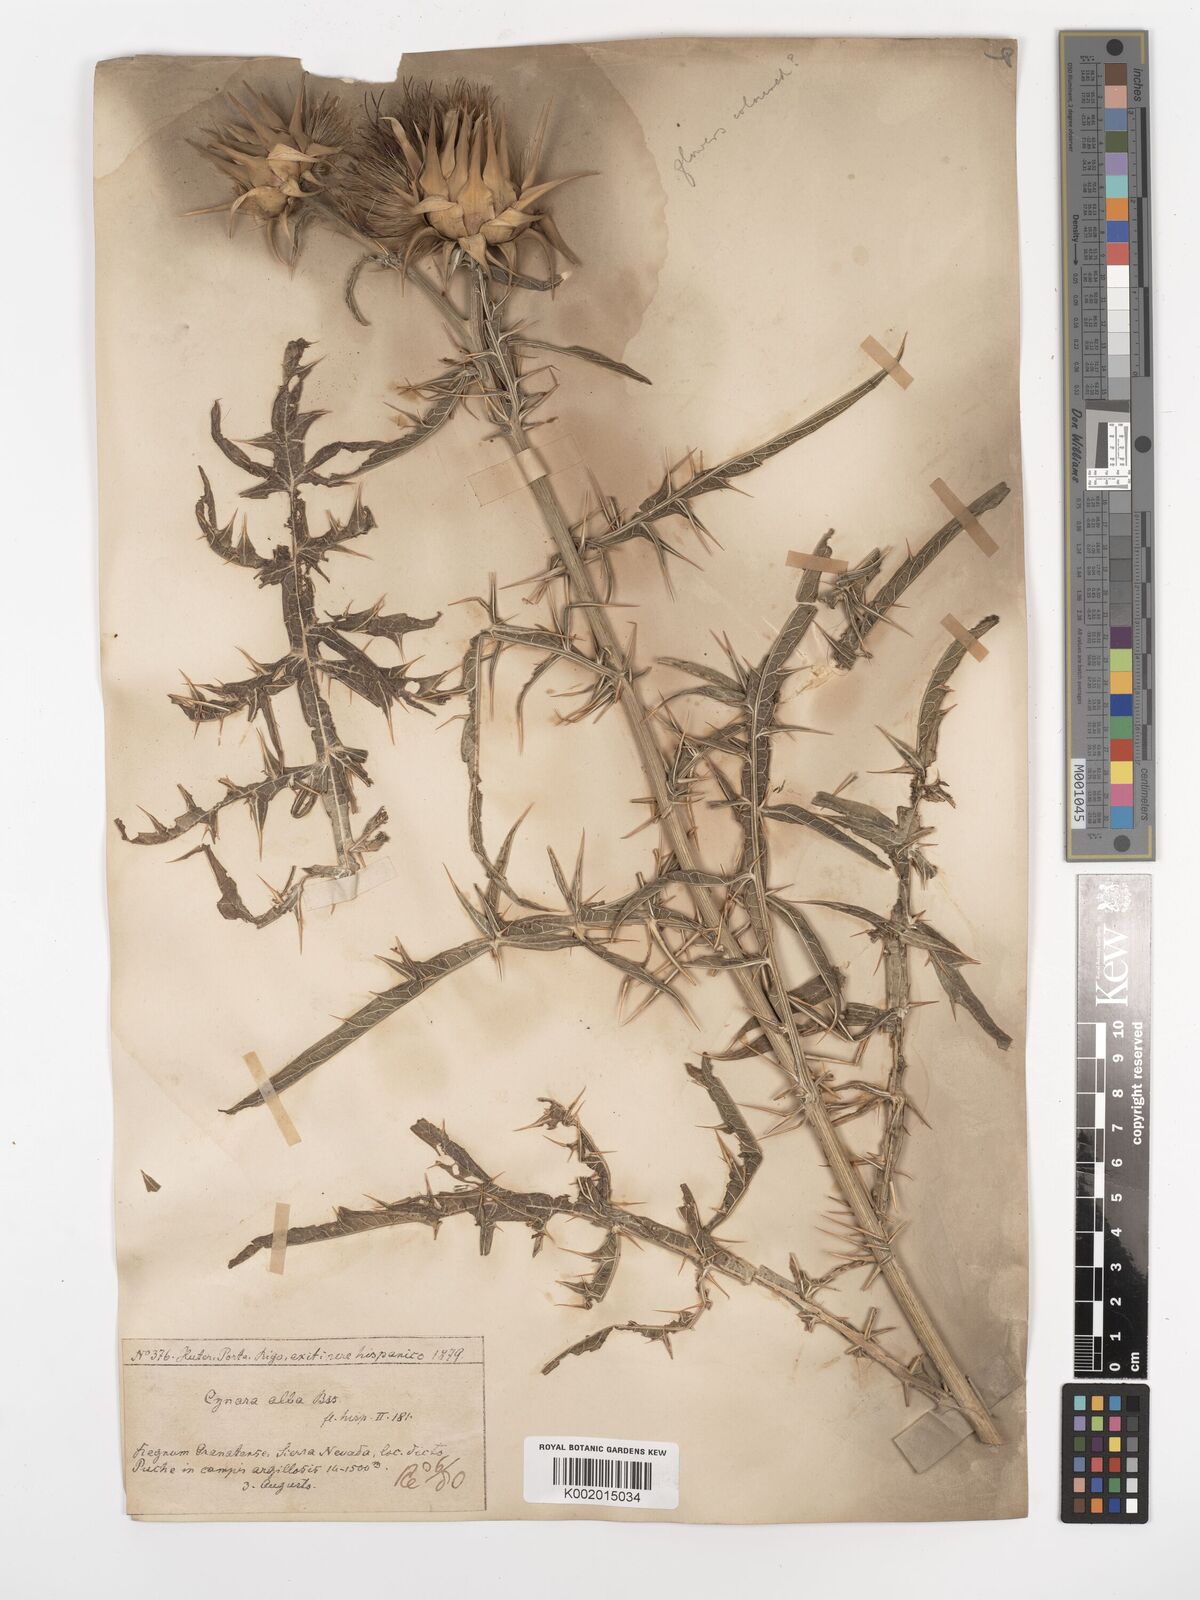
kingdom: Plantae
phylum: Tracheophyta
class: Magnoliopsida
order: Asterales
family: Asteraceae
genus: Cynara
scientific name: Cynara baetica
